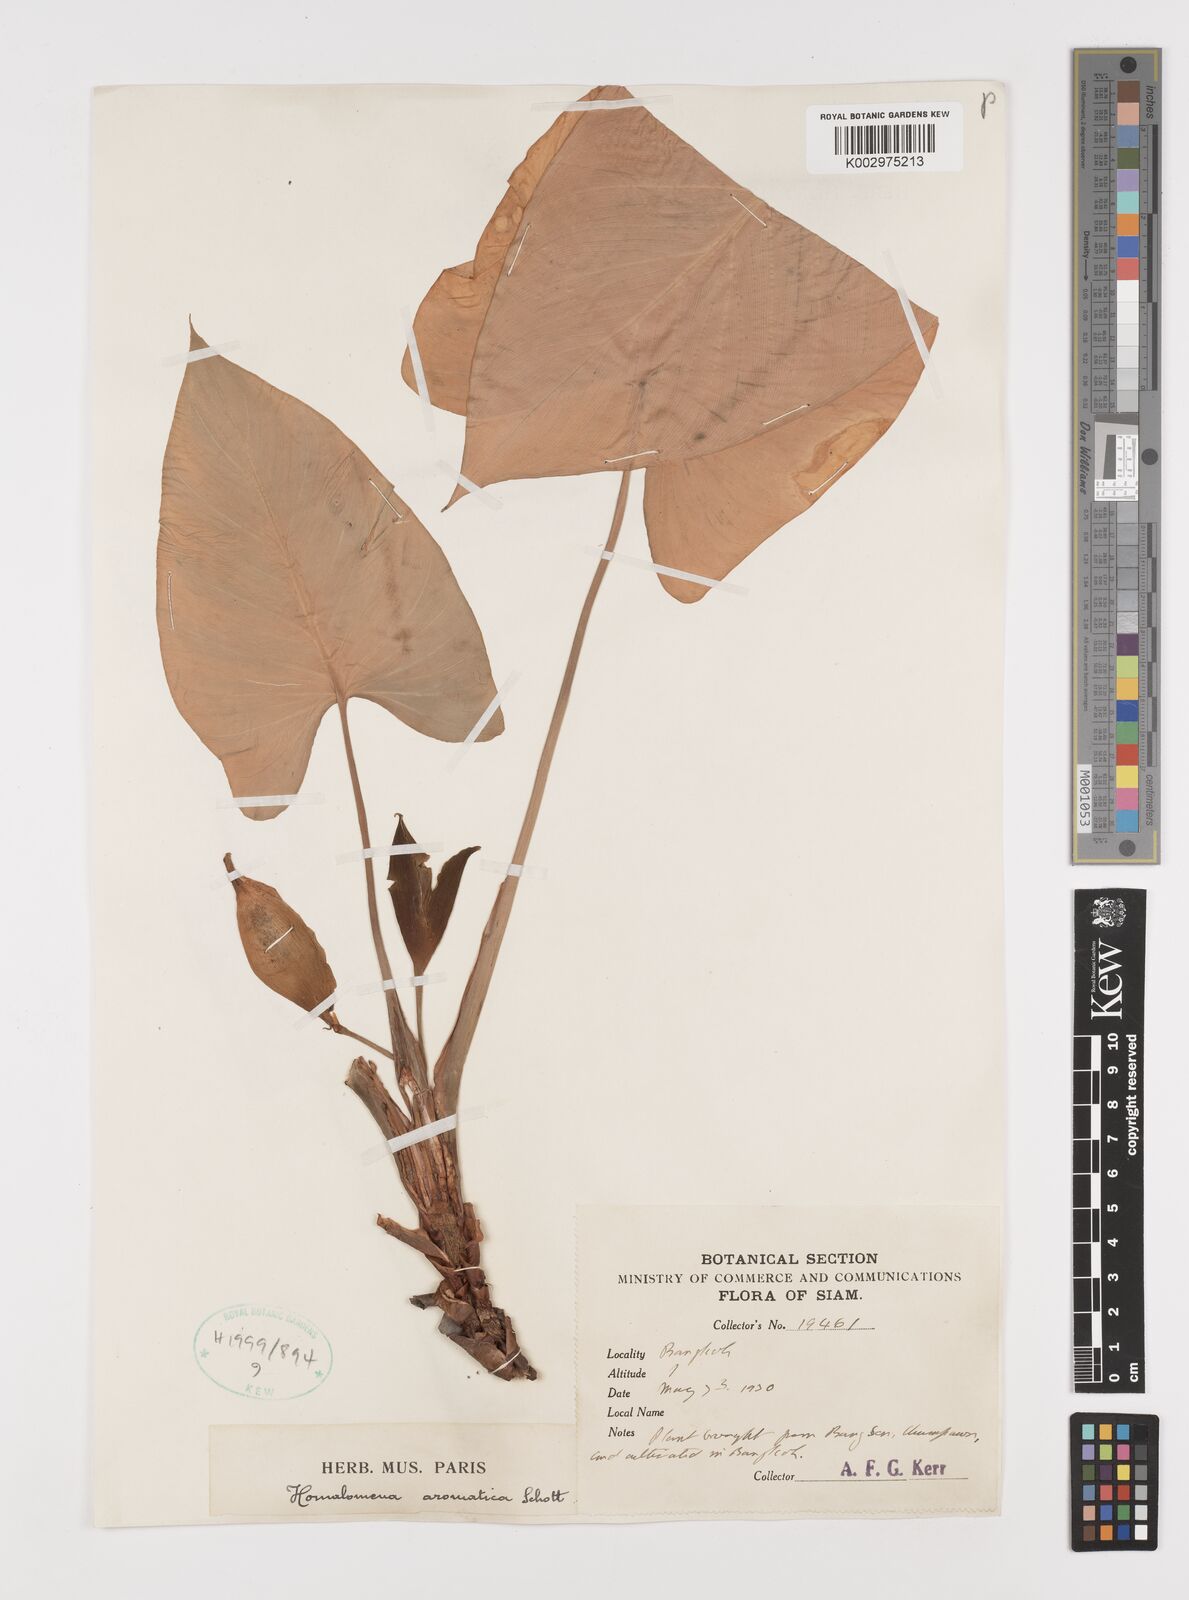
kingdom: Plantae
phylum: Tracheophyta
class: Liliopsida
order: Alismatales
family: Araceae
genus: Homalomena
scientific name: Homalomena aromatica
